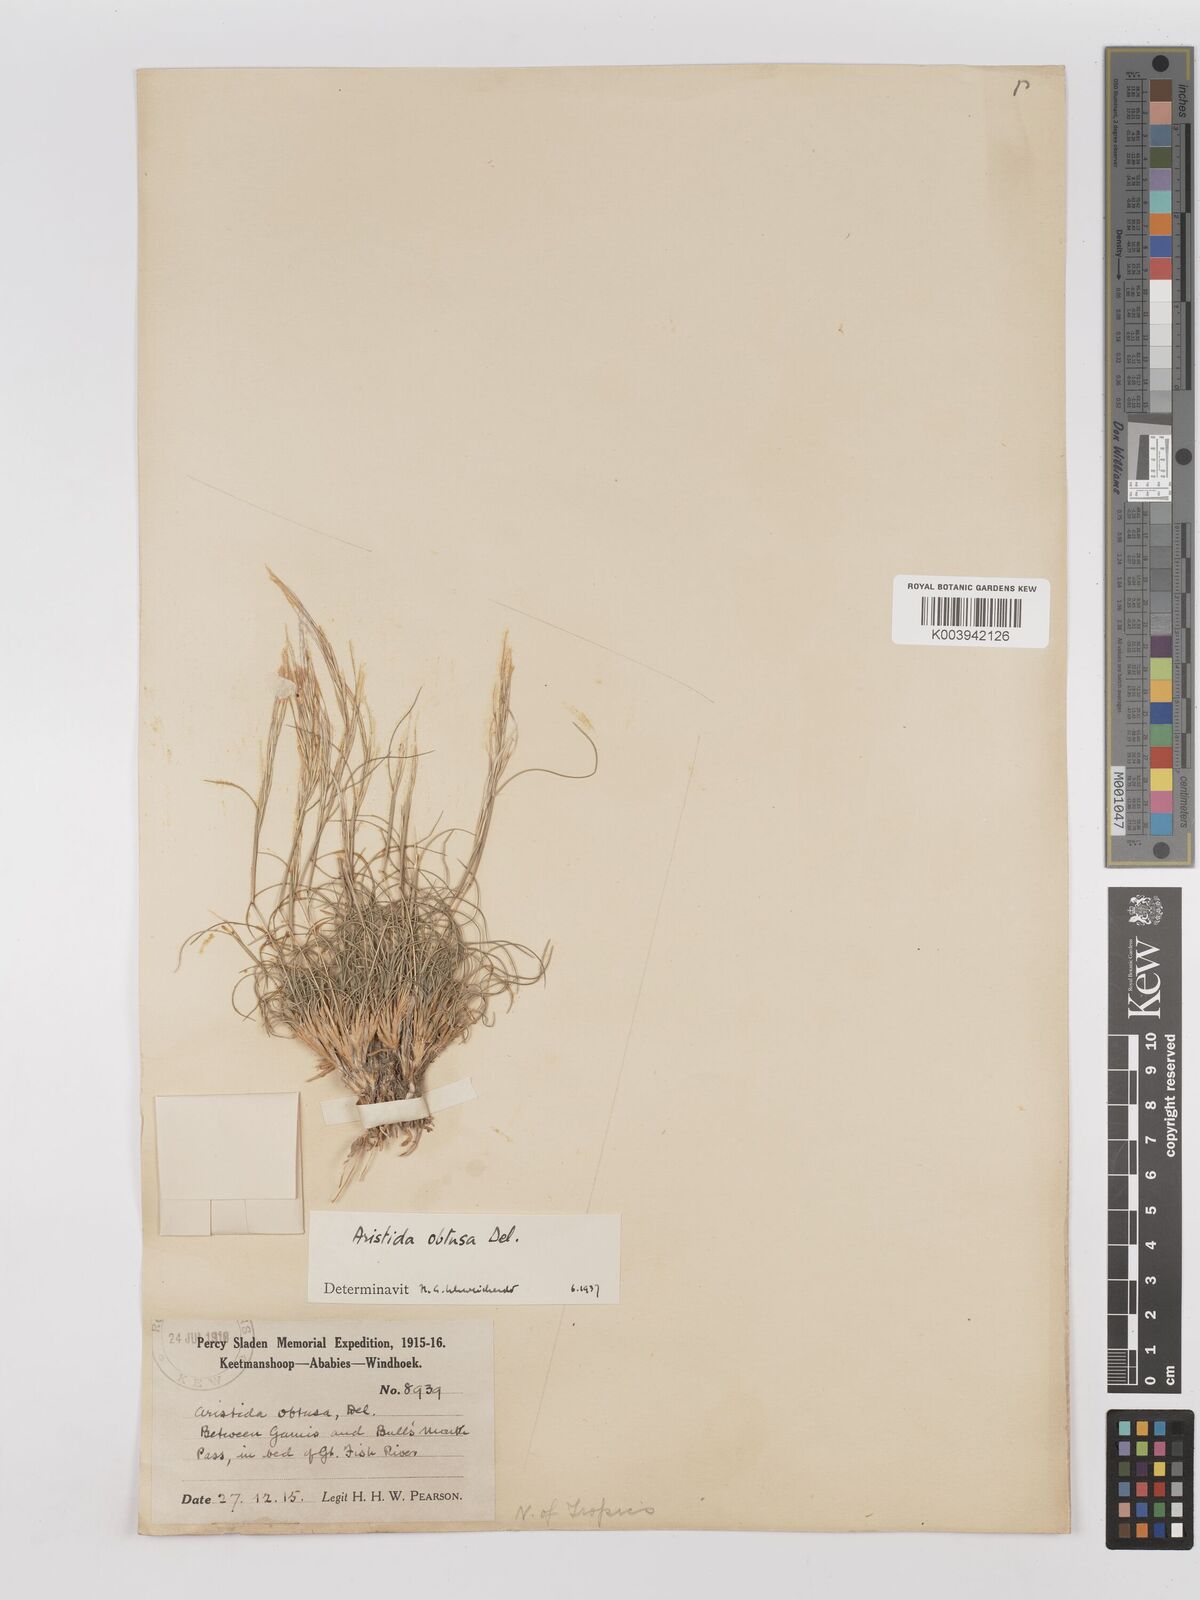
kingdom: Plantae
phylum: Tracheophyta
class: Liliopsida
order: Poales
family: Poaceae
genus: Stipagrostis
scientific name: Stipagrostis obtusa
